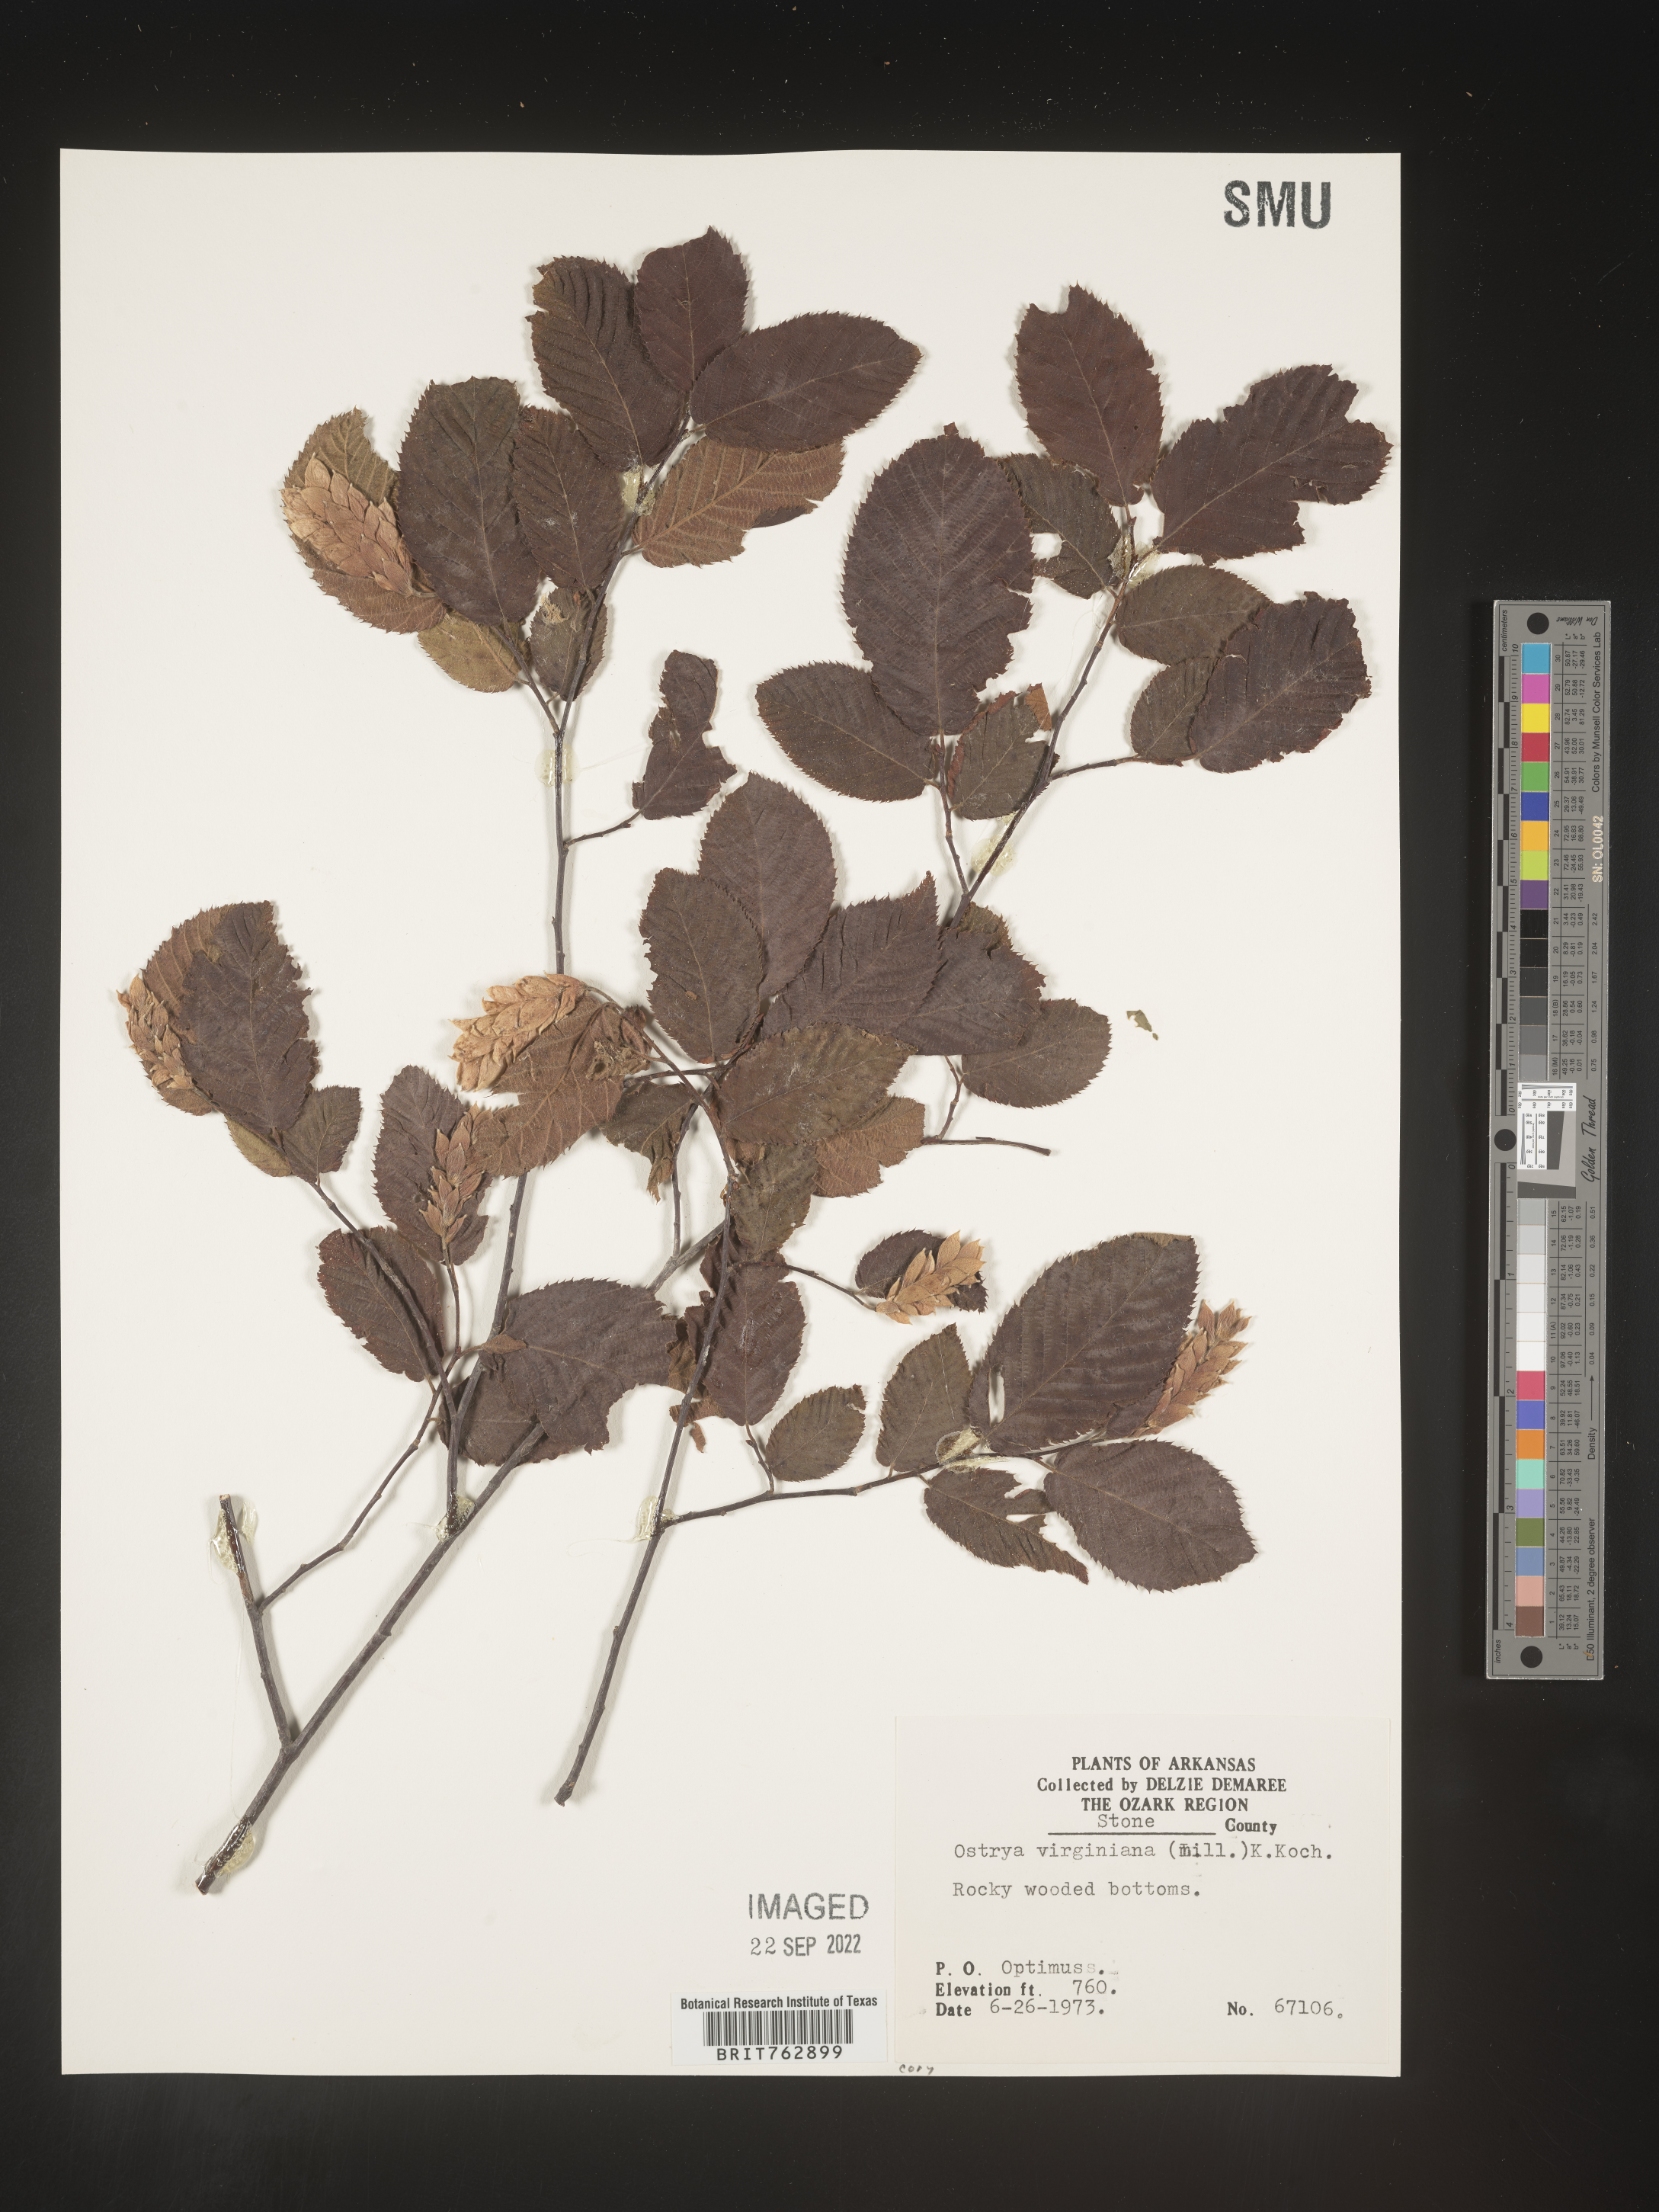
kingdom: Plantae
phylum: Tracheophyta
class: Magnoliopsida
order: Fagales
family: Betulaceae
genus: Ostrya
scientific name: Ostrya virginiana
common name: Ironwood
